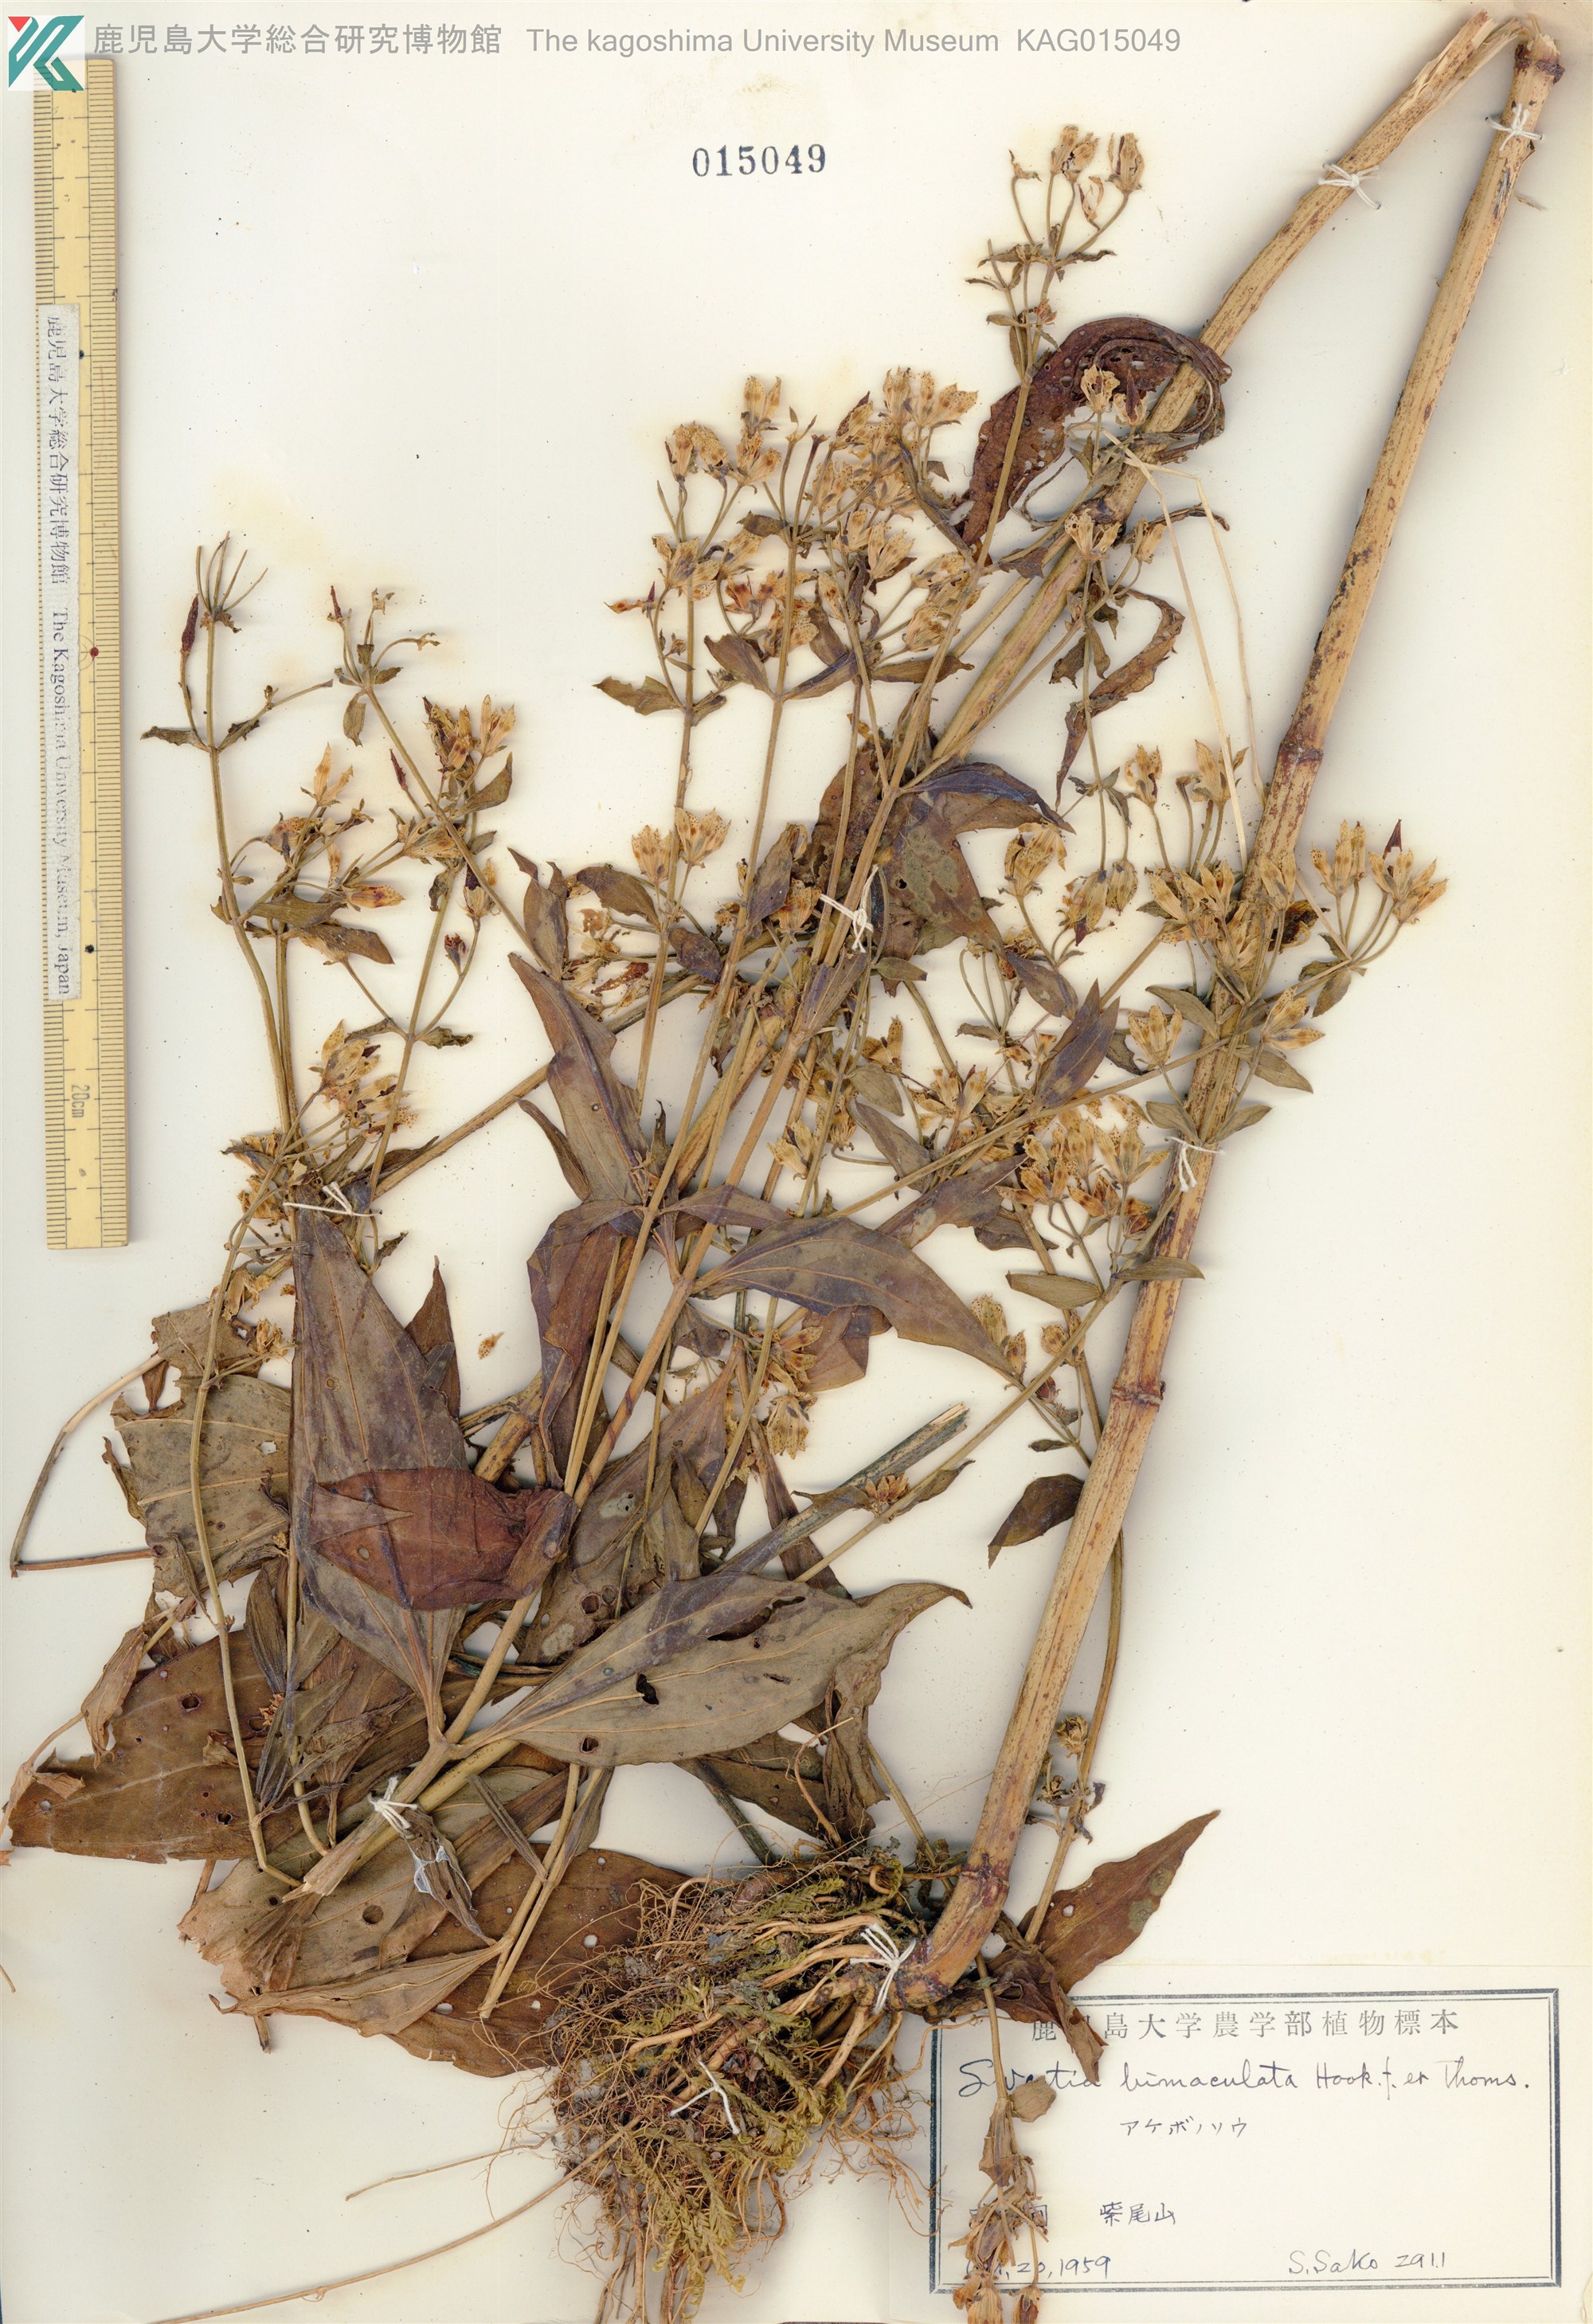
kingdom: Plantae
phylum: Tracheophyta
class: Magnoliopsida
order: Gentianales
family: Gentianaceae
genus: Swertia
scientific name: Swertia bimaculata
